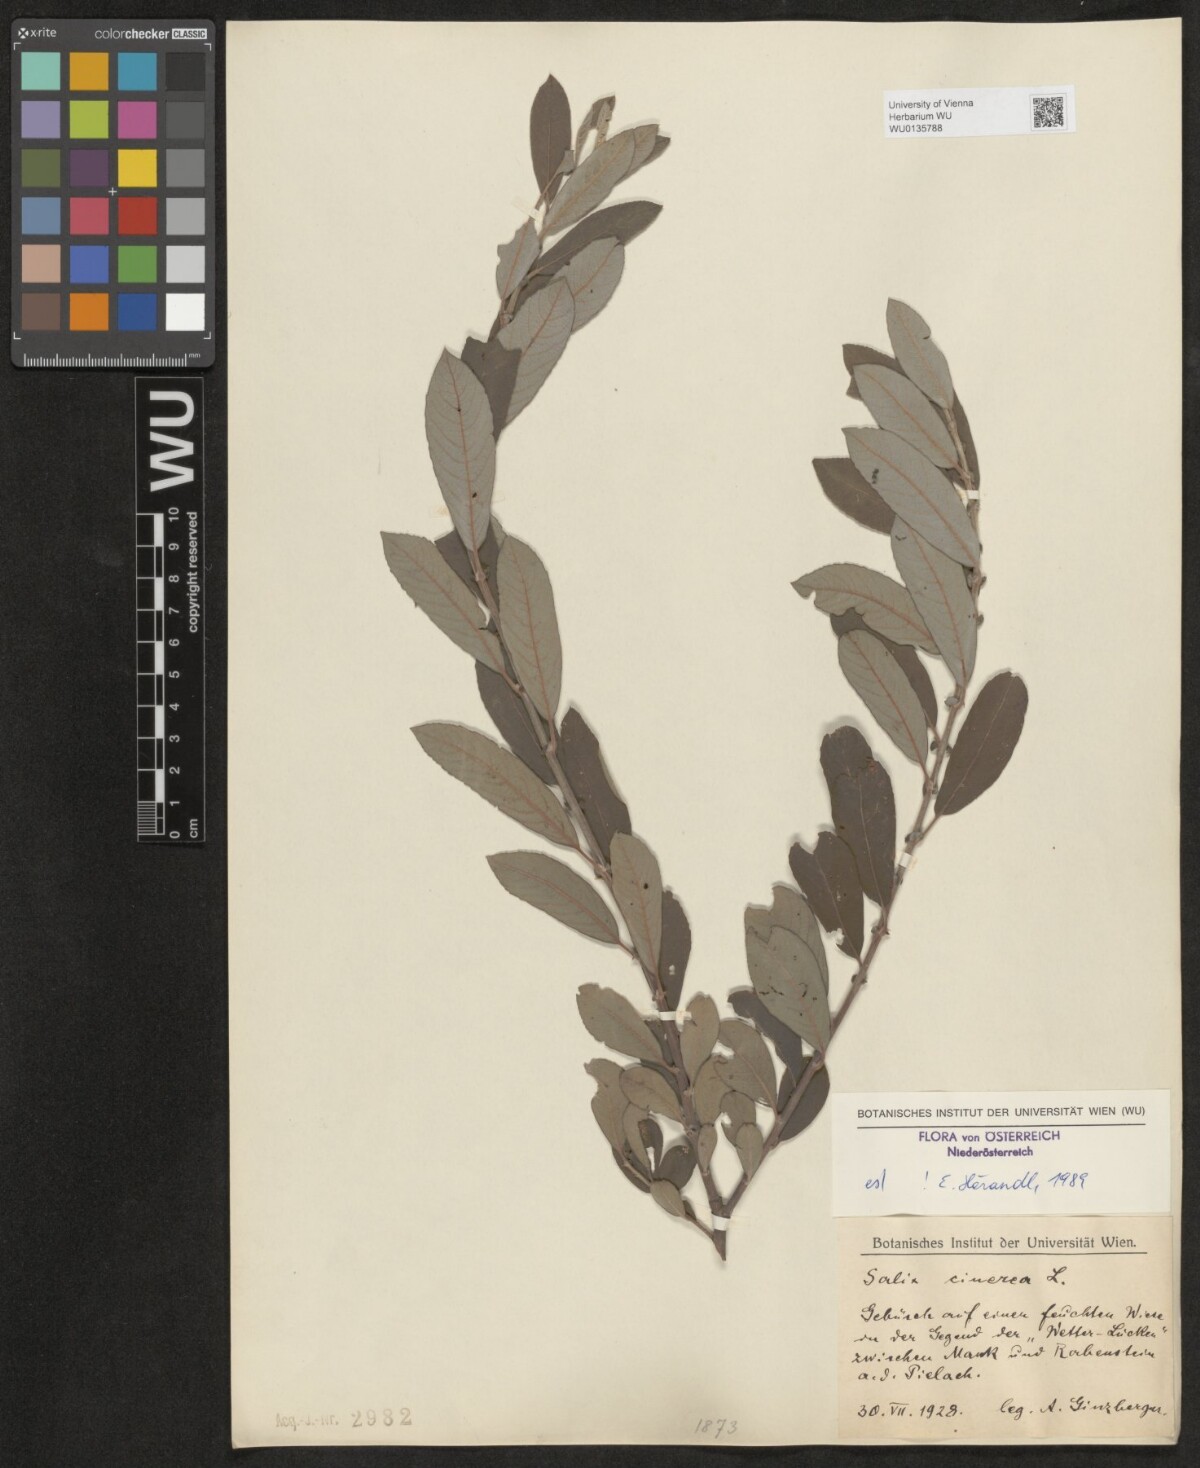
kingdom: Plantae
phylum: Tracheophyta
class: Magnoliopsida
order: Malpighiales
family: Salicaceae
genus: Salix
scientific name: Salix cinerea
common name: Common sallow
